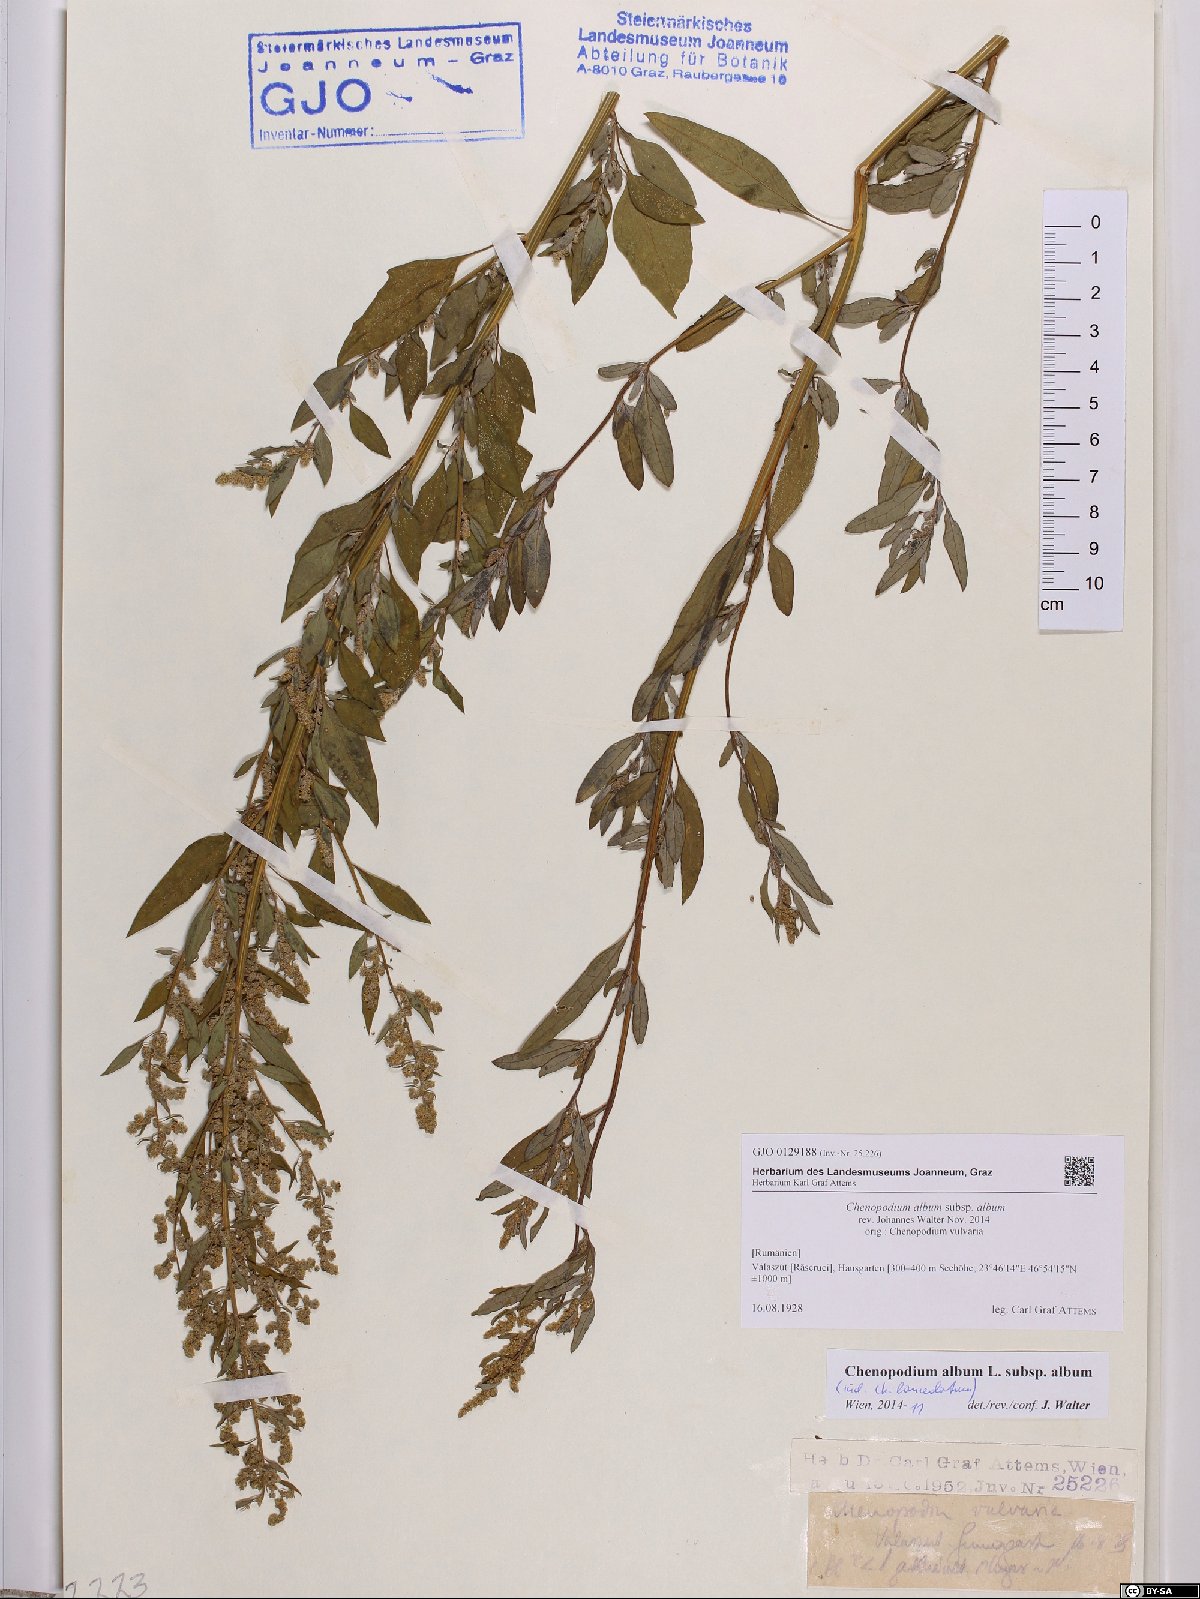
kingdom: Plantae
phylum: Tracheophyta
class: Magnoliopsida
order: Caryophyllales
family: Amaranthaceae
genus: Chenopodium
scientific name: Chenopodium album
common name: Fat-hen
